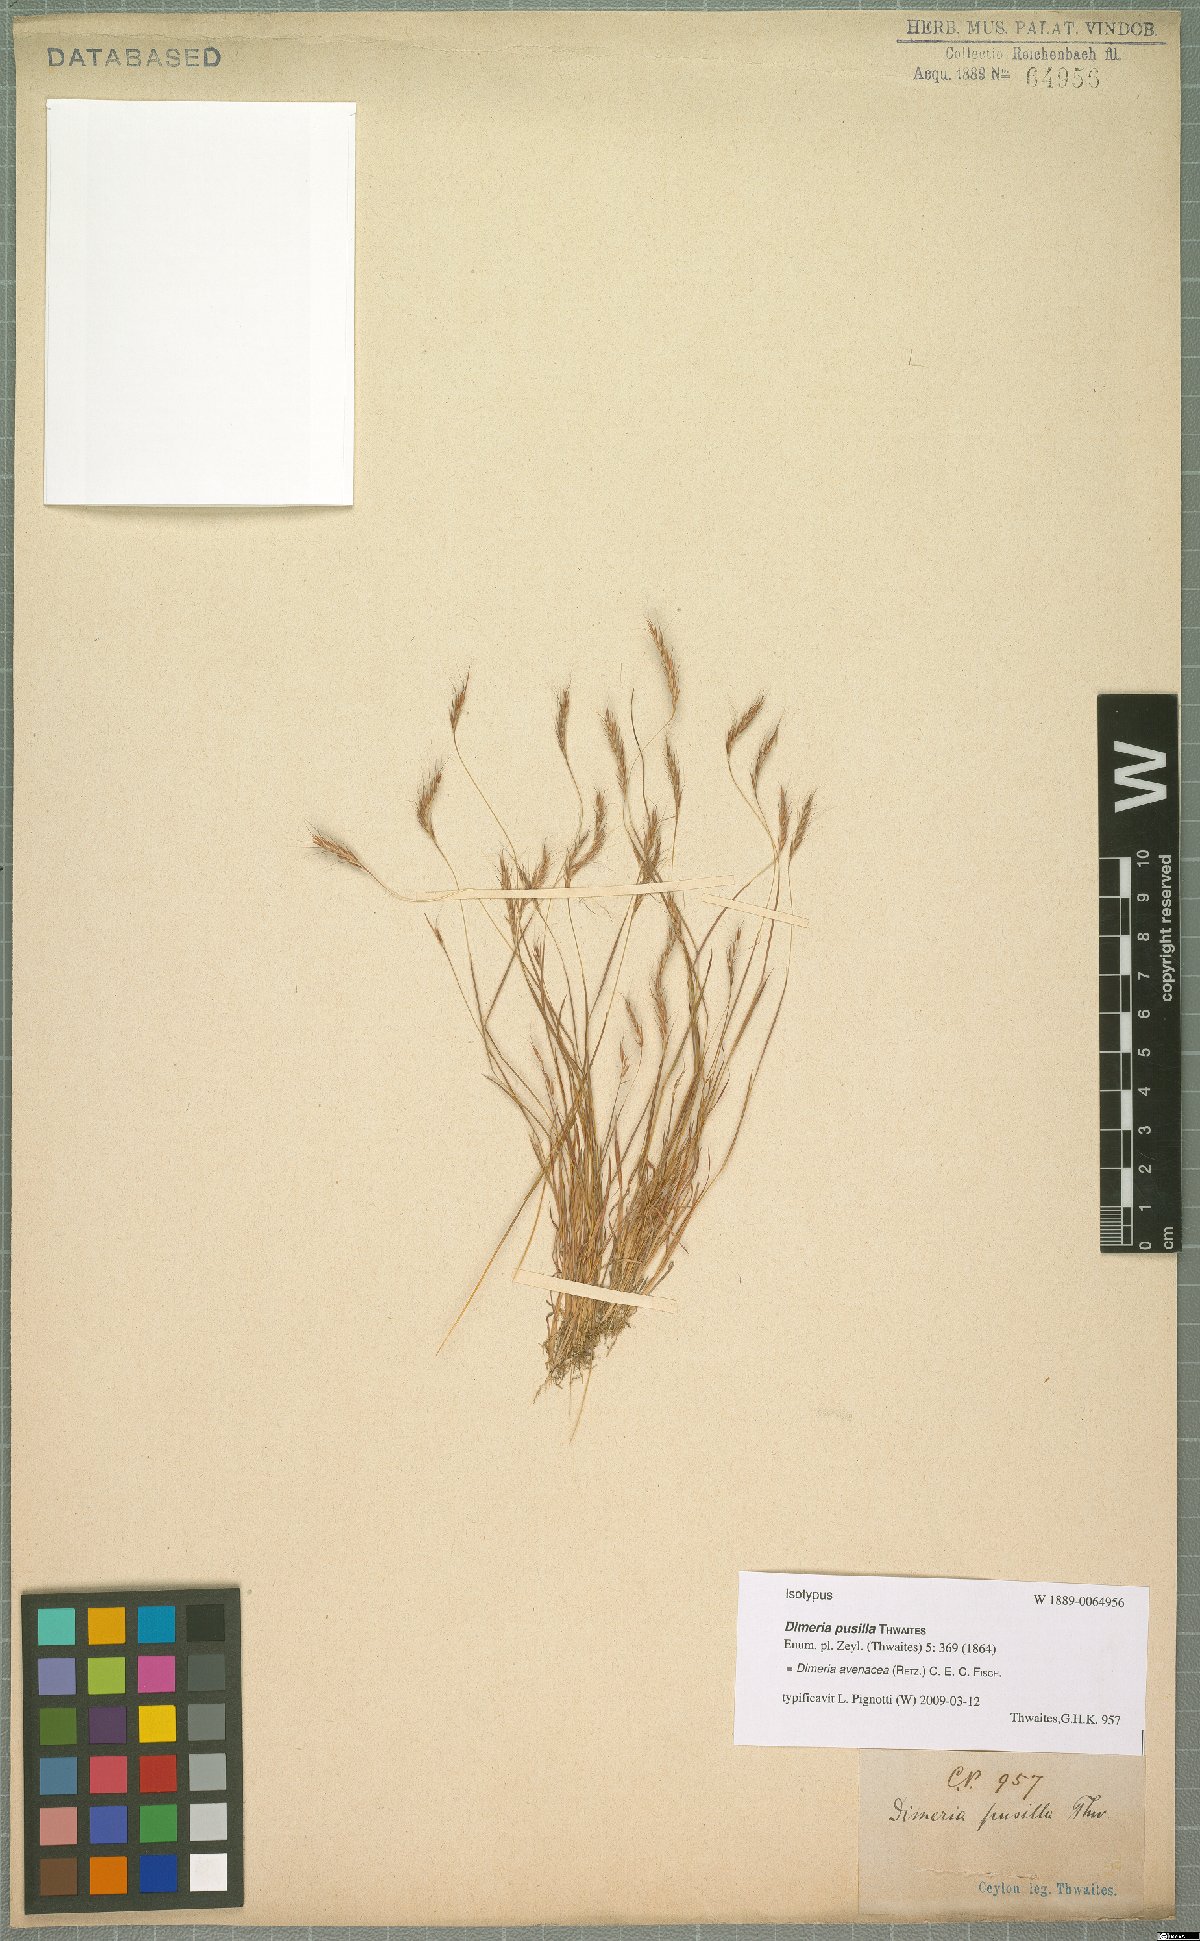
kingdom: Plantae
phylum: Tracheophyta
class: Liliopsida
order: Poales
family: Poaceae
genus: Dimeria
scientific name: Dimeria avenacea
